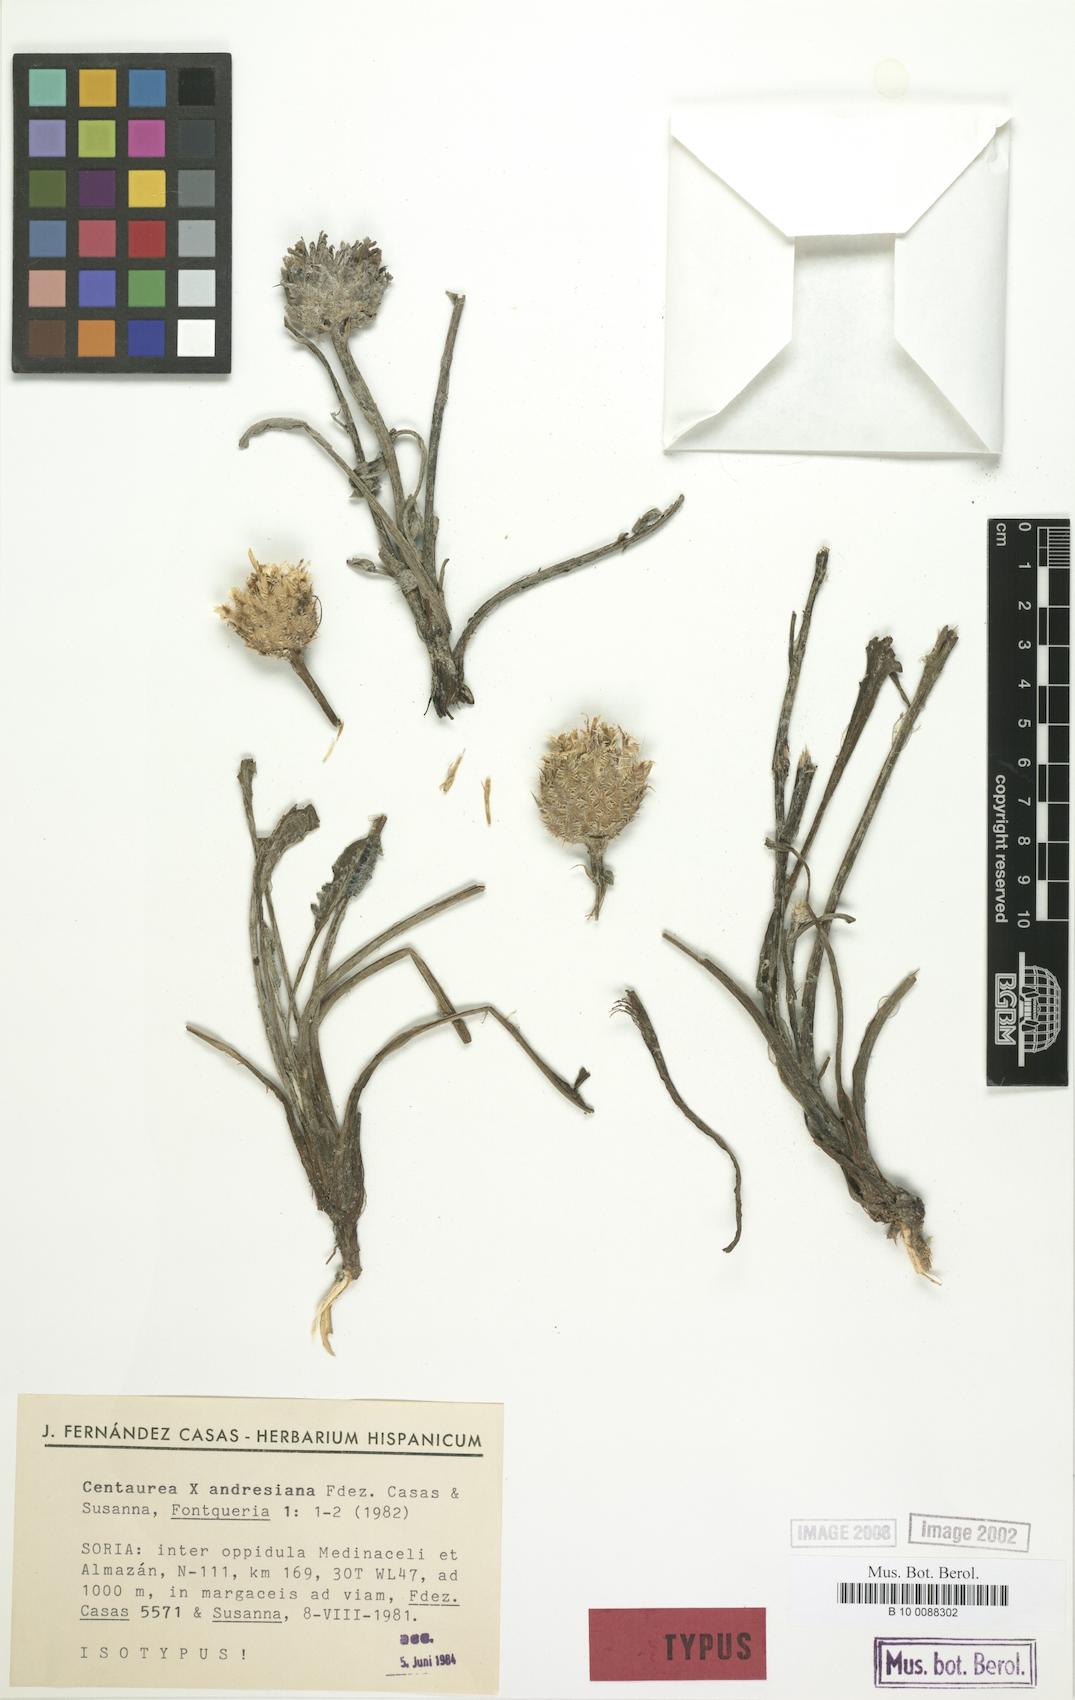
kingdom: Plantae
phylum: Tracheophyta
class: Magnoliopsida
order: Asterales
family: Asteraceae
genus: Centaurea
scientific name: Centaurea andresiana
